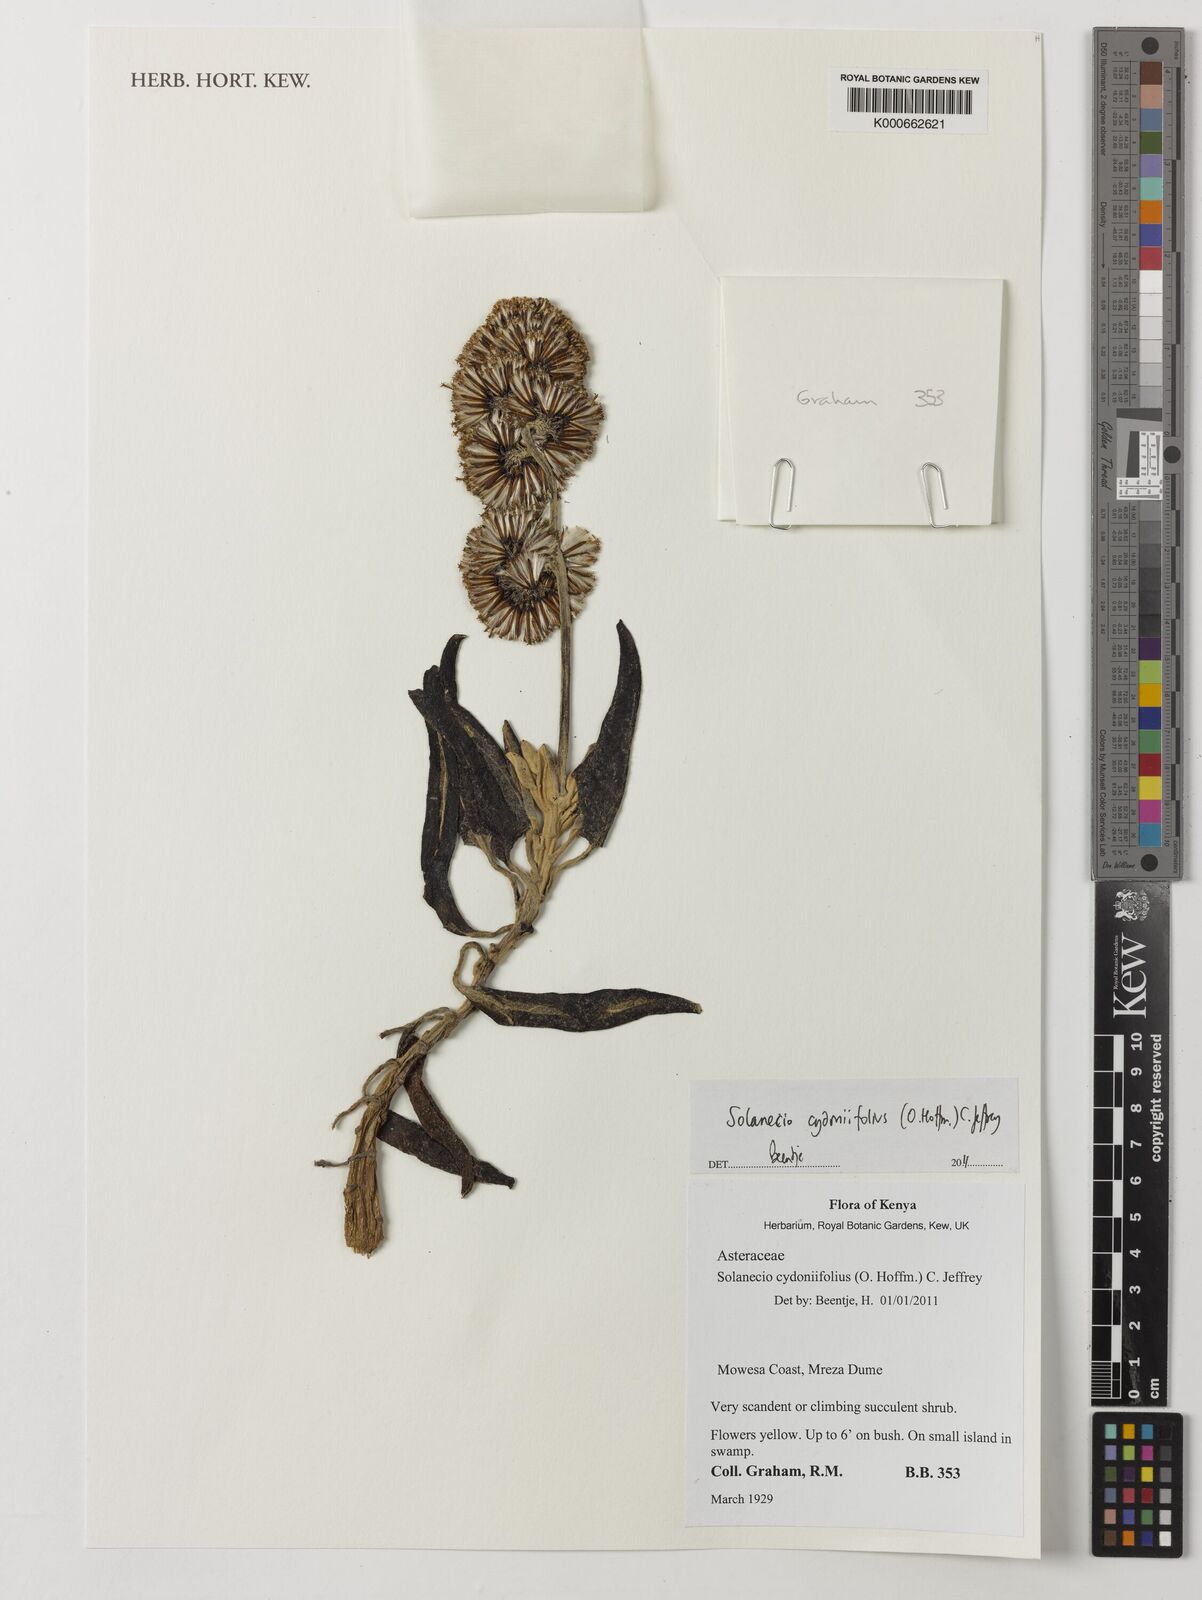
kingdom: Plantae
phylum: Tracheophyta
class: Magnoliopsida
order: Asterales
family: Asteraceae
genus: Solanecio
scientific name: Solanecio cydoniifolius
